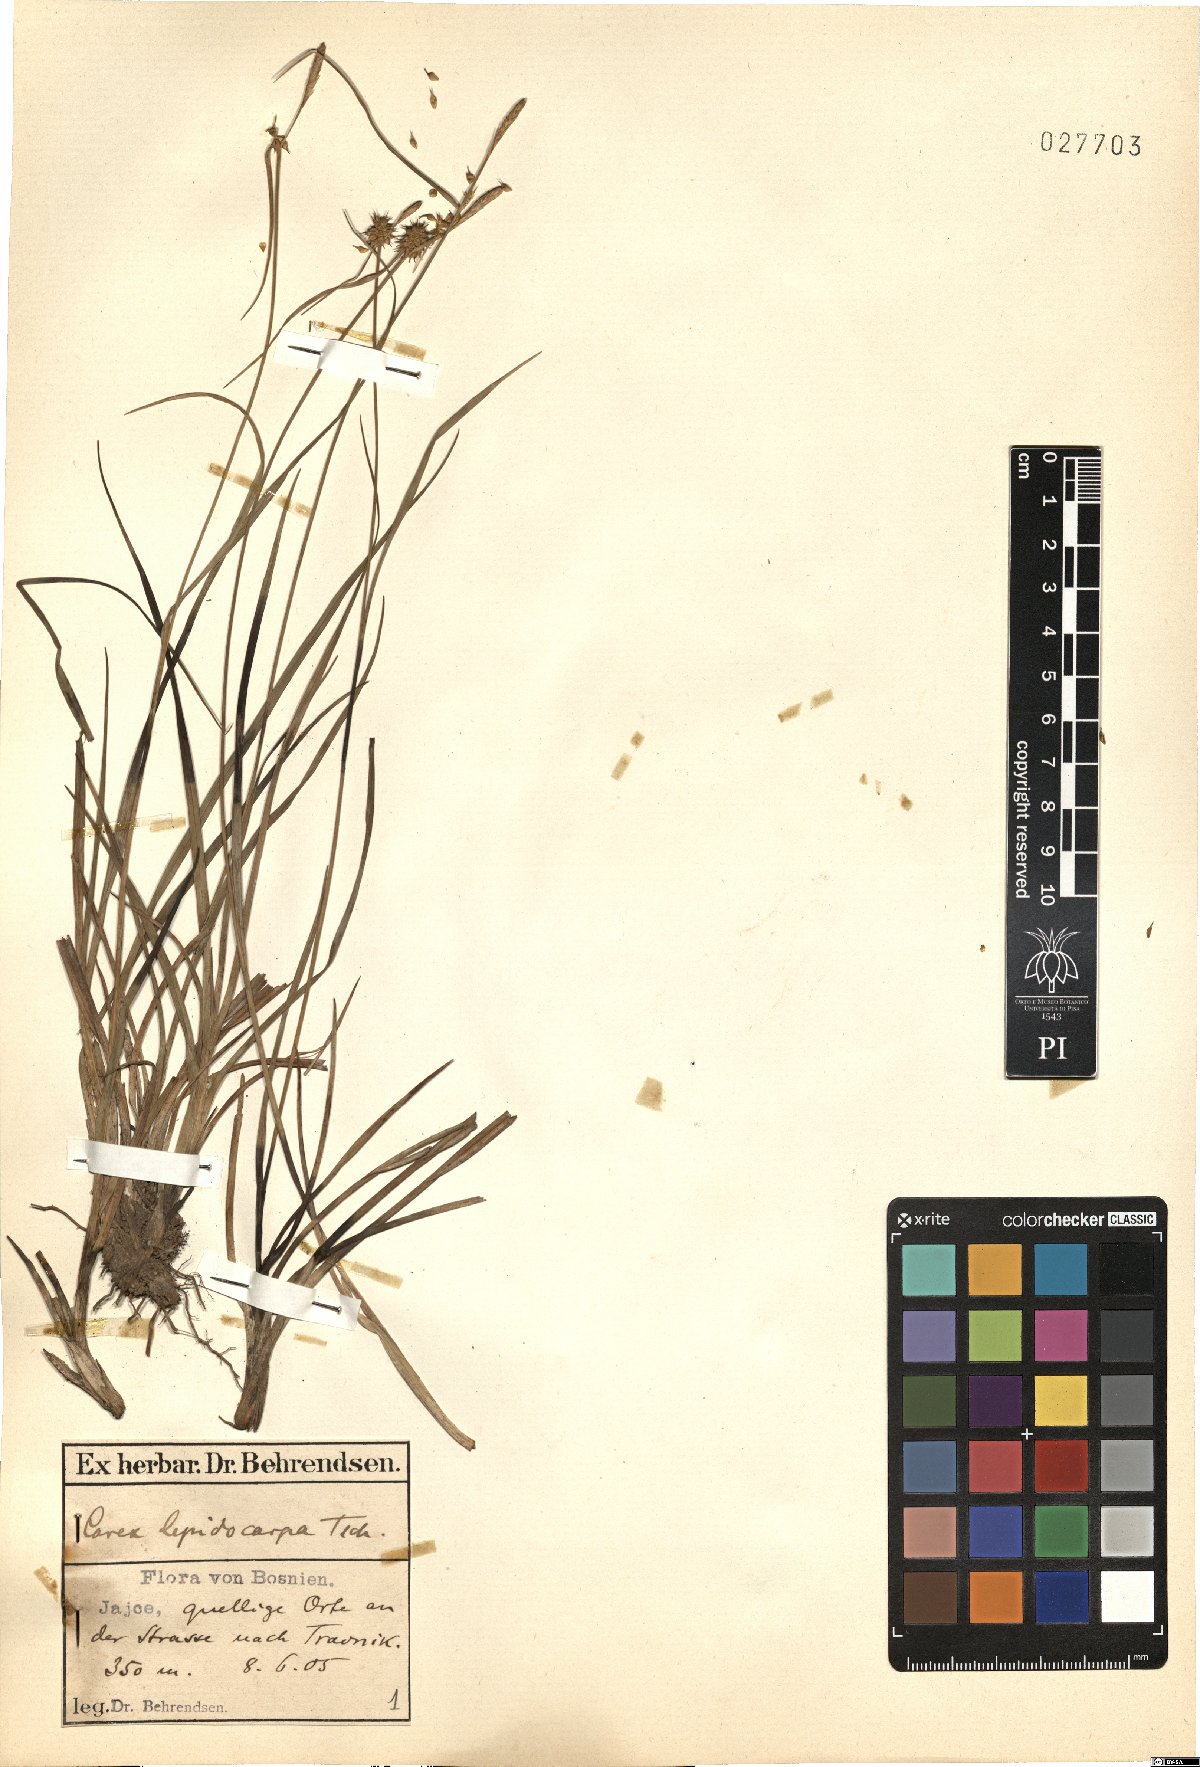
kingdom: Plantae
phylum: Tracheophyta
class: Liliopsida
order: Poales
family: Cyperaceae
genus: Carex
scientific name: Carex lepidocarpa
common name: Long-stalked yellow-sedge
